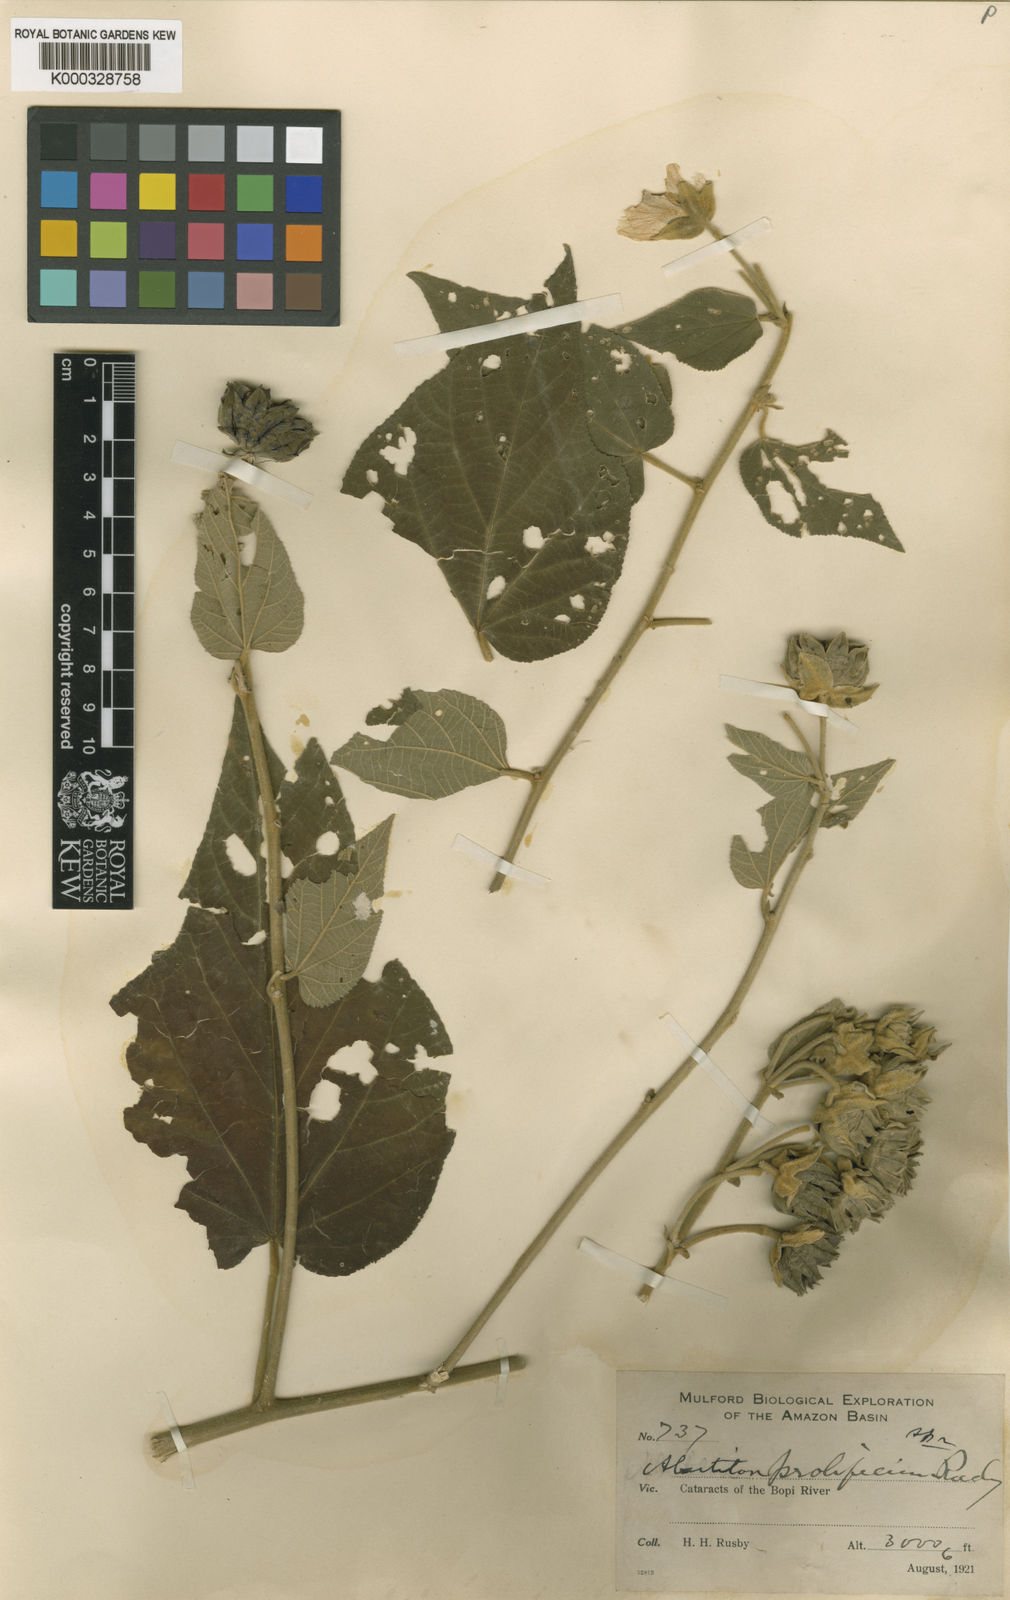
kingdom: Plantae
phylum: Tracheophyta
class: Magnoliopsida
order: Malvales
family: Malvaceae
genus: Abutilon
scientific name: Abutilon
